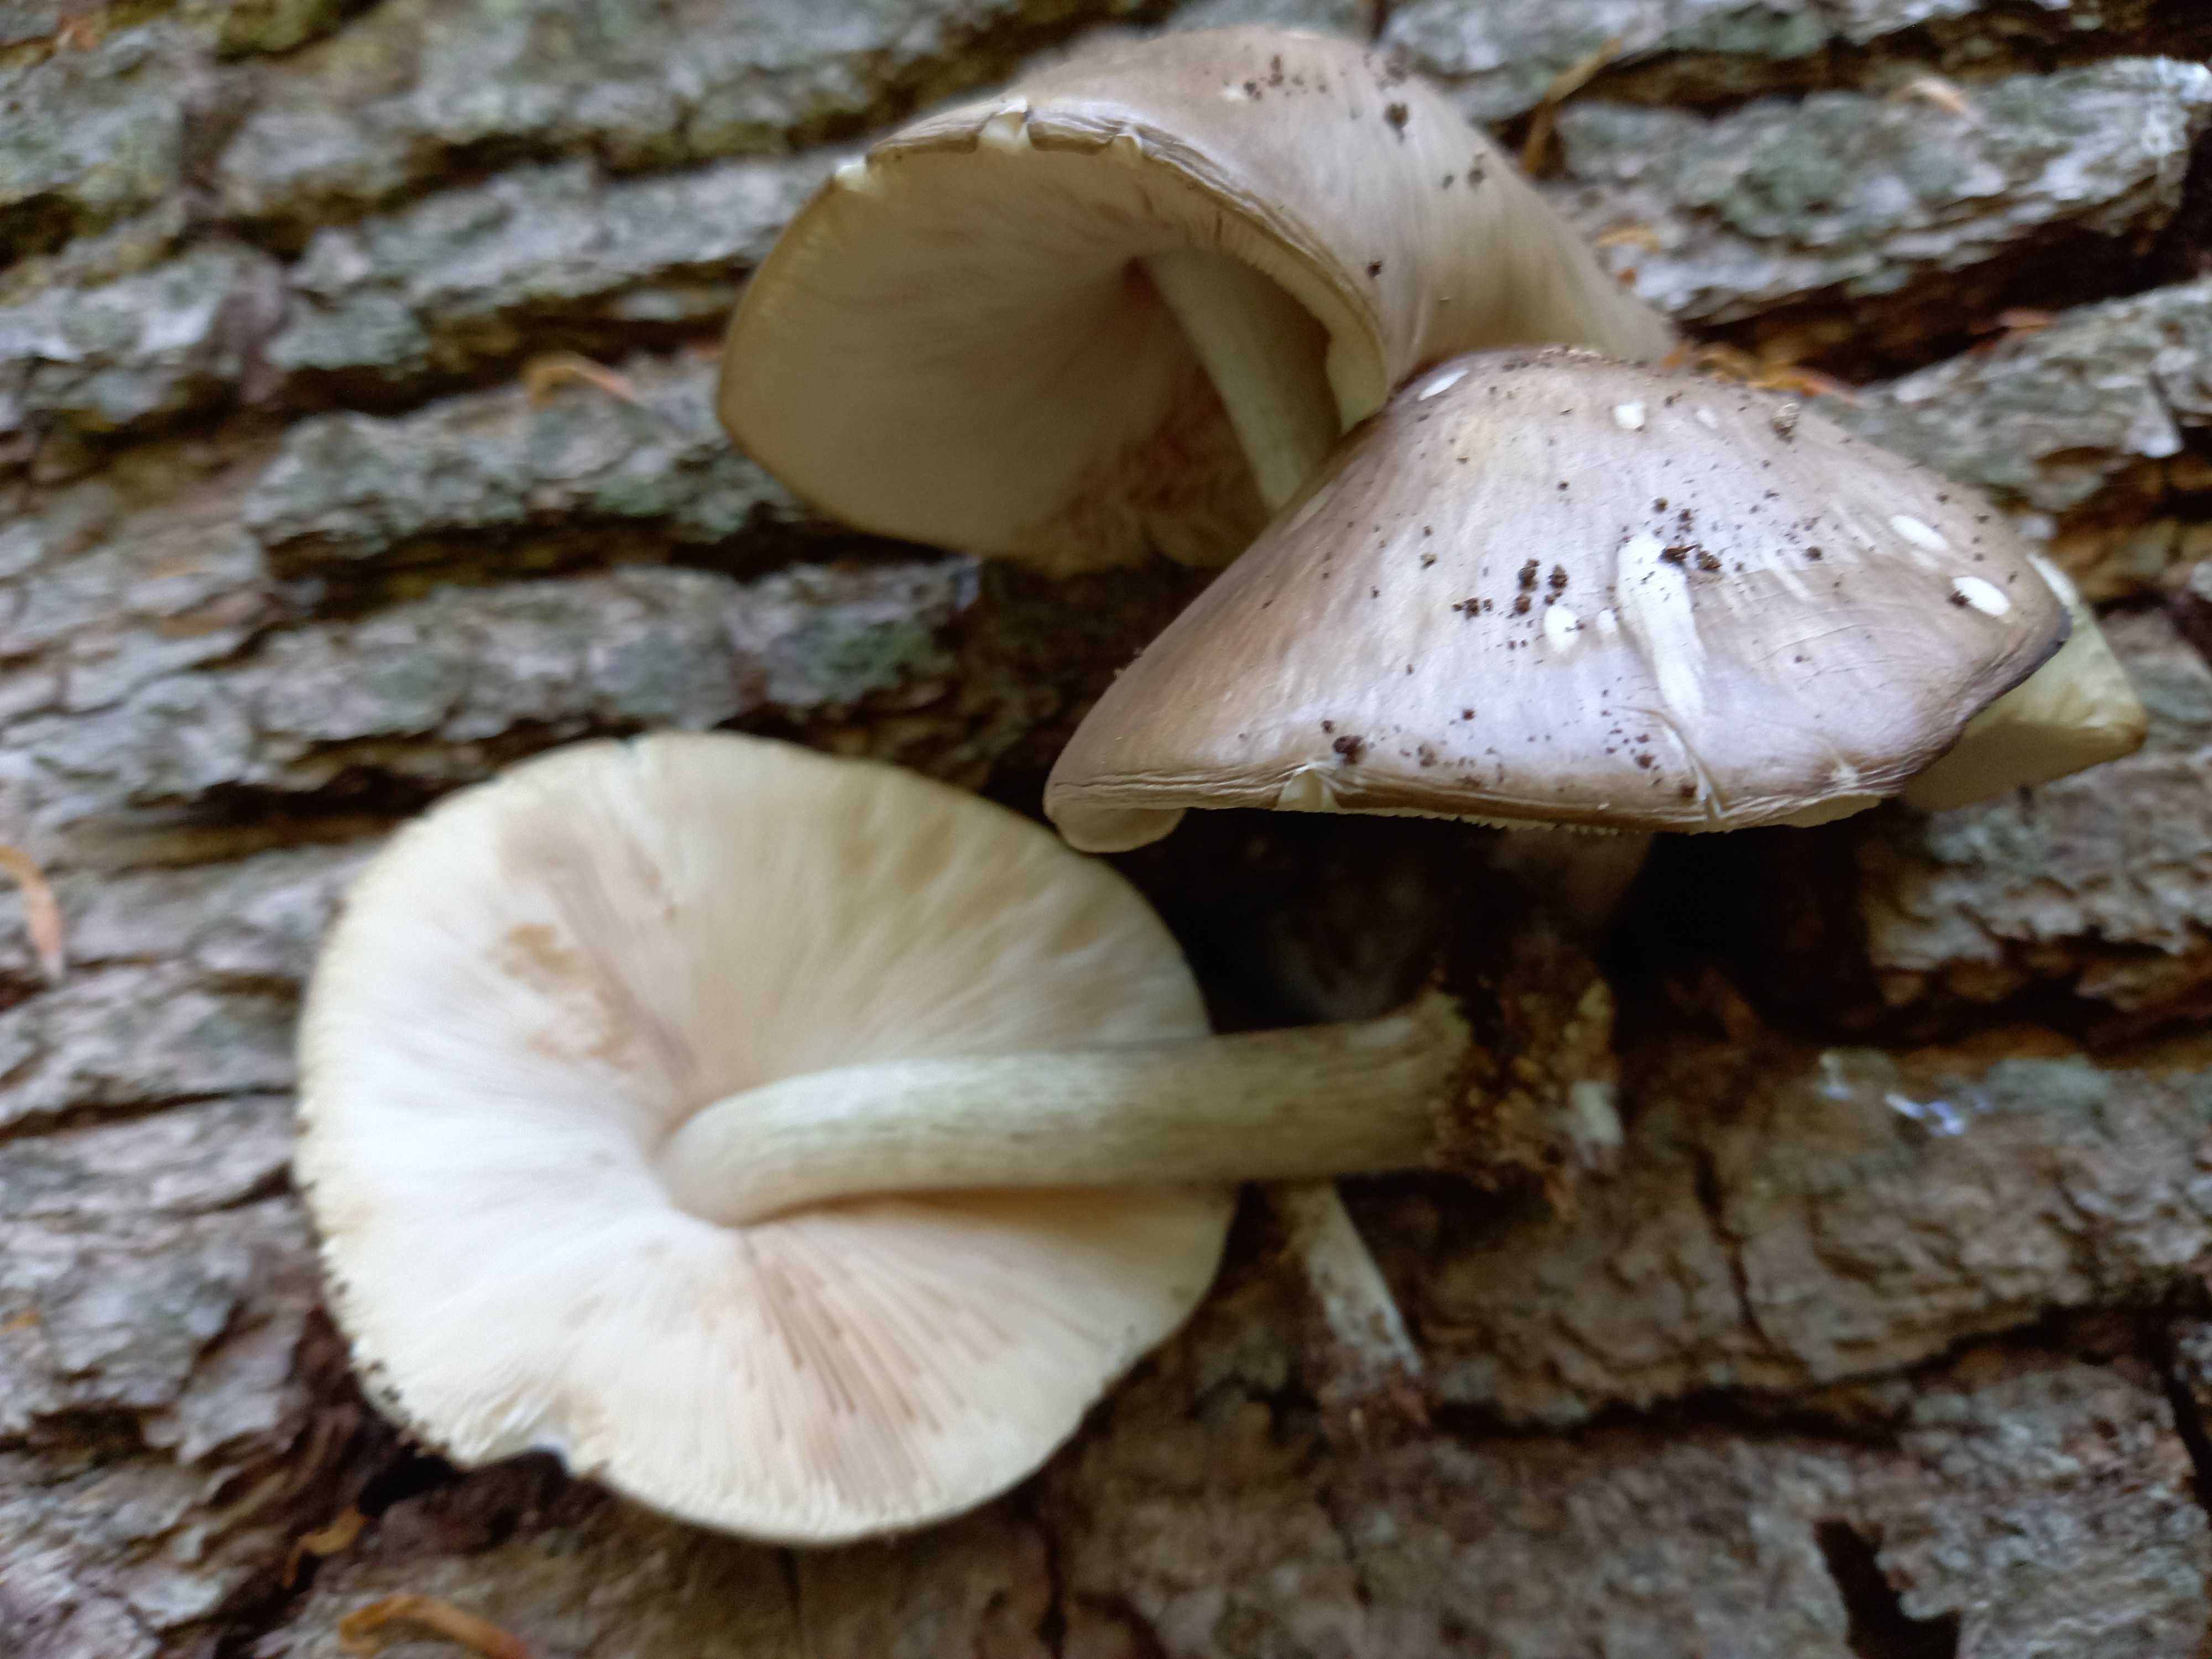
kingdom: Fungi
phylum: Basidiomycota
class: Agaricomycetes
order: Agaricales
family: Pluteaceae
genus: Pluteus
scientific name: Pluteus cervinus
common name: sodfarvet skærmhat
